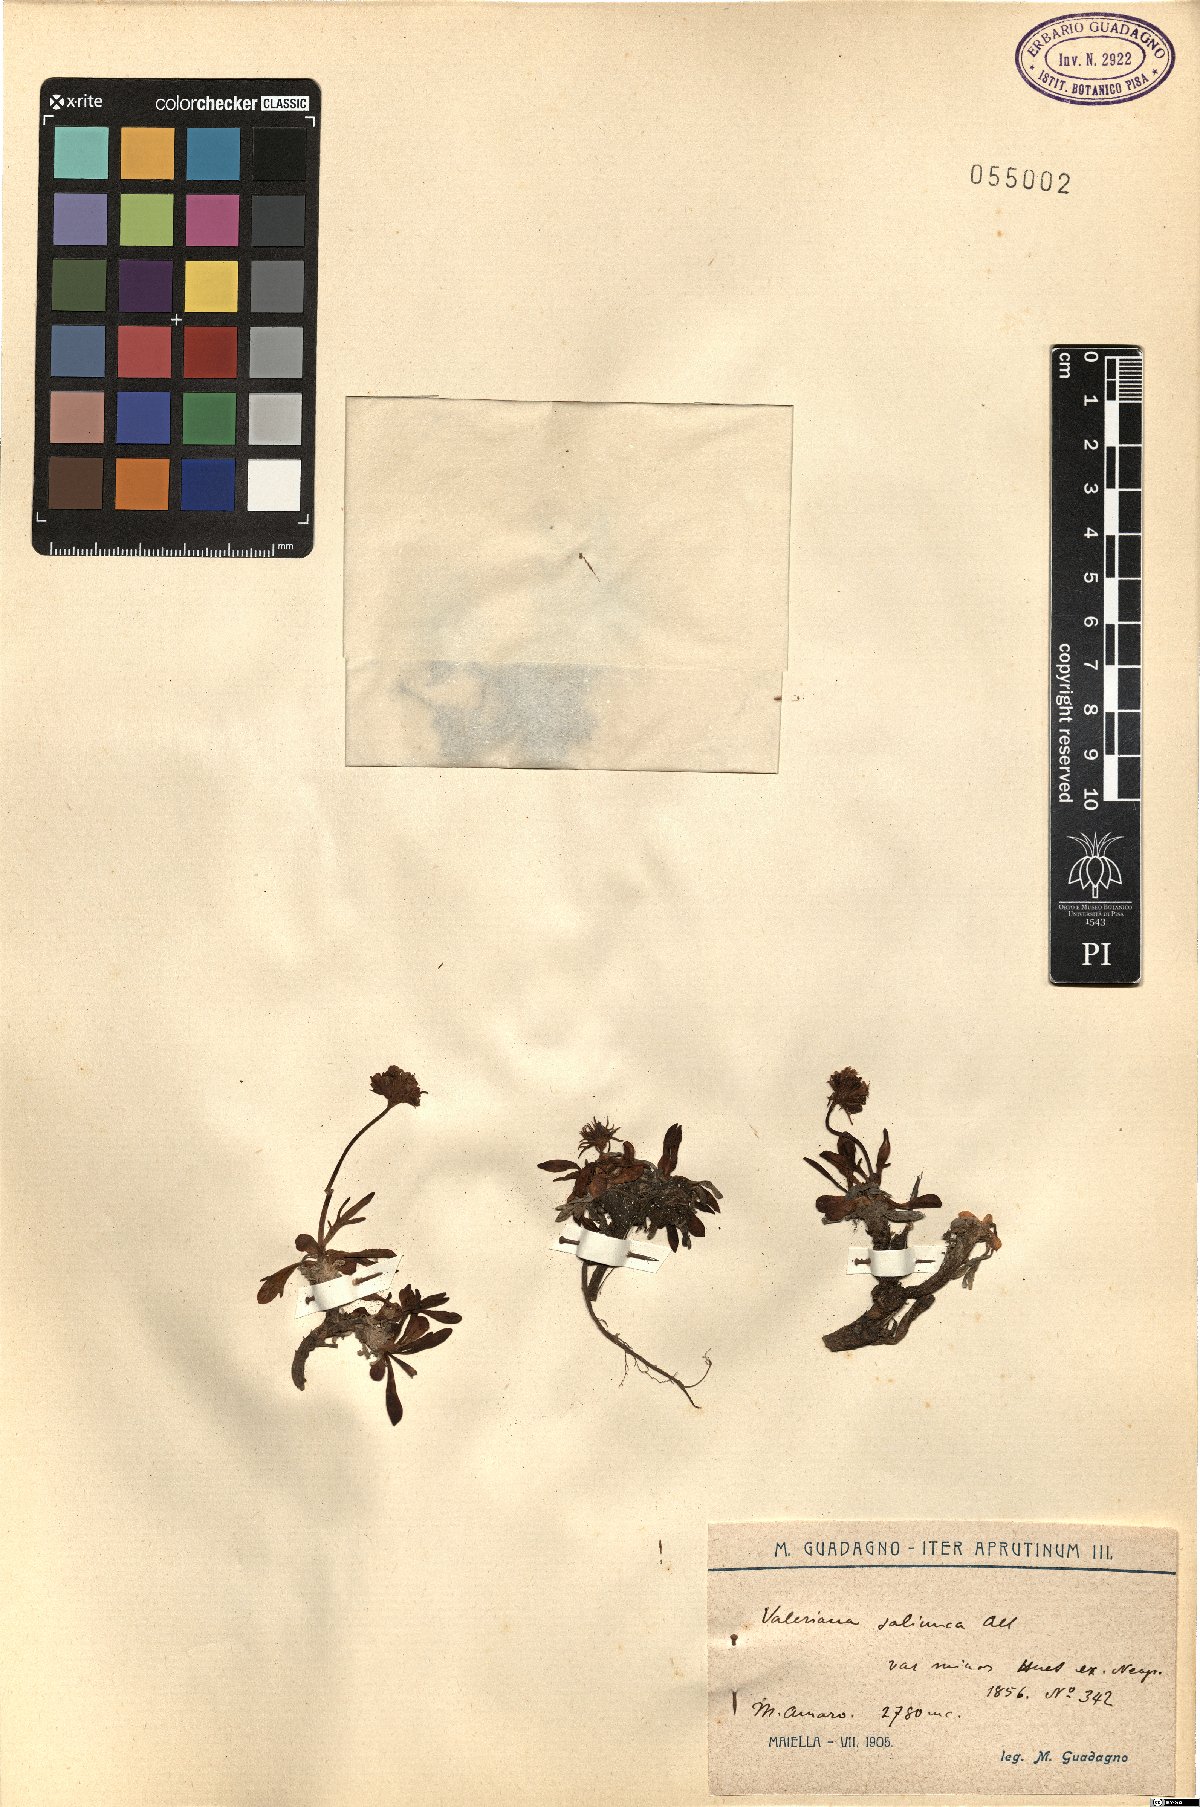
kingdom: Plantae
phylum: Tracheophyta
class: Magnoliopsida
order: Dipsacales
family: Caprifoliaceae
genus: Valeriana
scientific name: Valeriana saliunca
